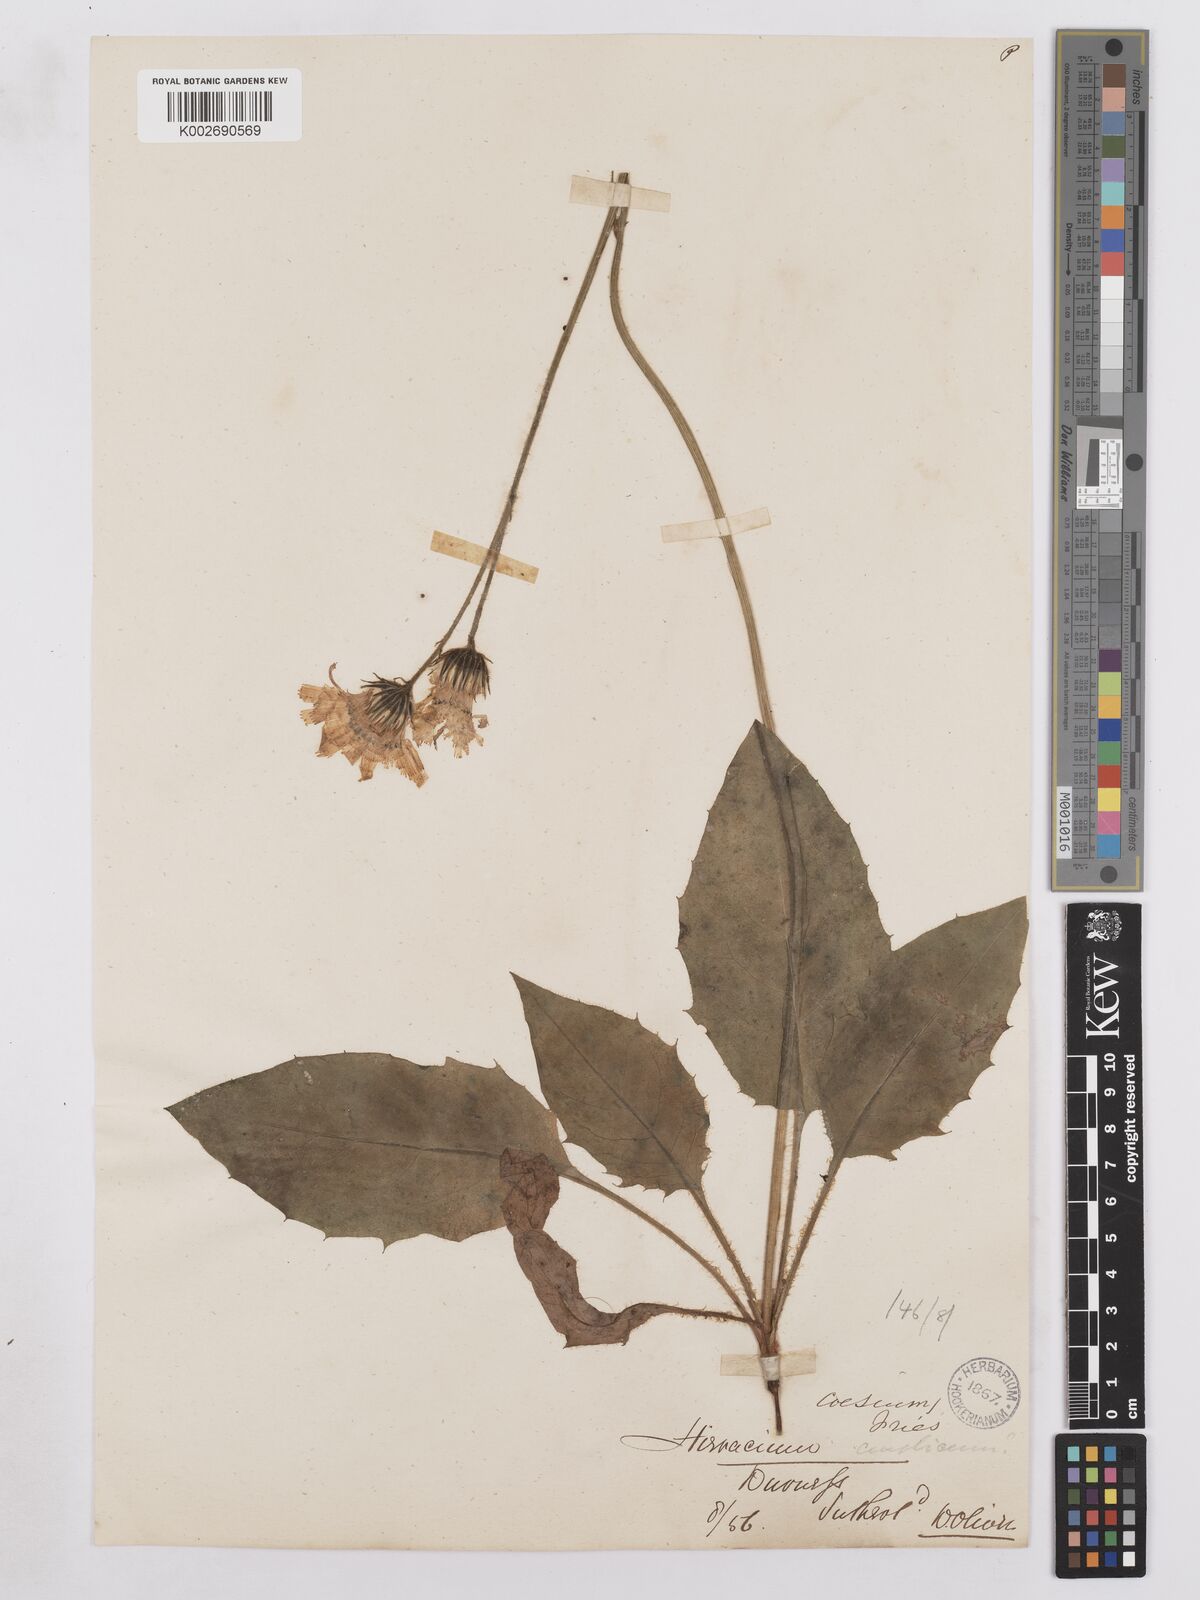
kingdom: Plantae
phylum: Tracheophyta
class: Magnoliopsida
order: Asterales
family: Asteraceae
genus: Hieracium
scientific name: Hieracium britannicum
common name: British hawkweed
